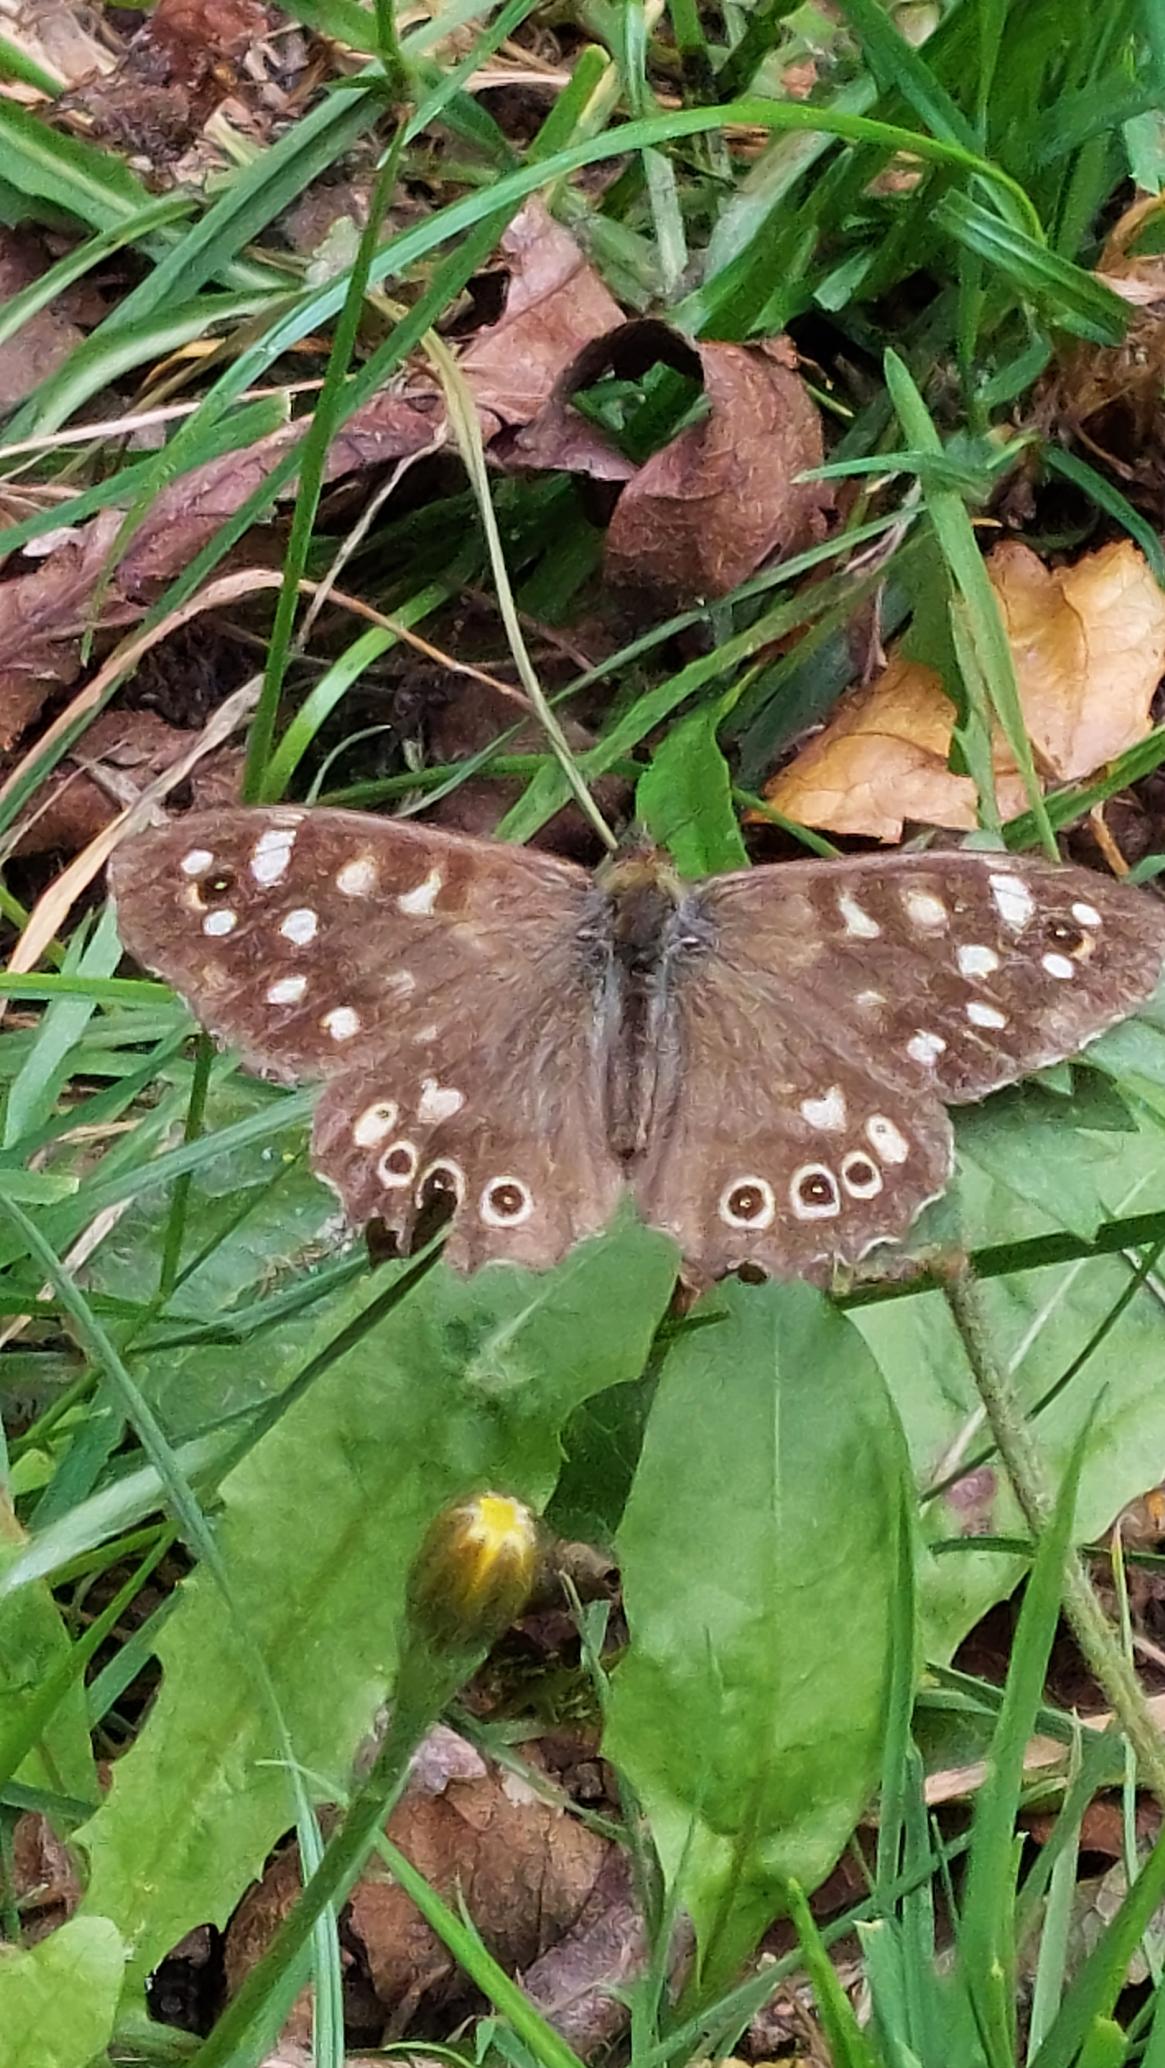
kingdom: Animalia
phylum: Arthropoda
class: Insecta
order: Lepidoptera
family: Nymphalidae
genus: Pararge
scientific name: Pararge aegeria
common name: Skovrandøje
